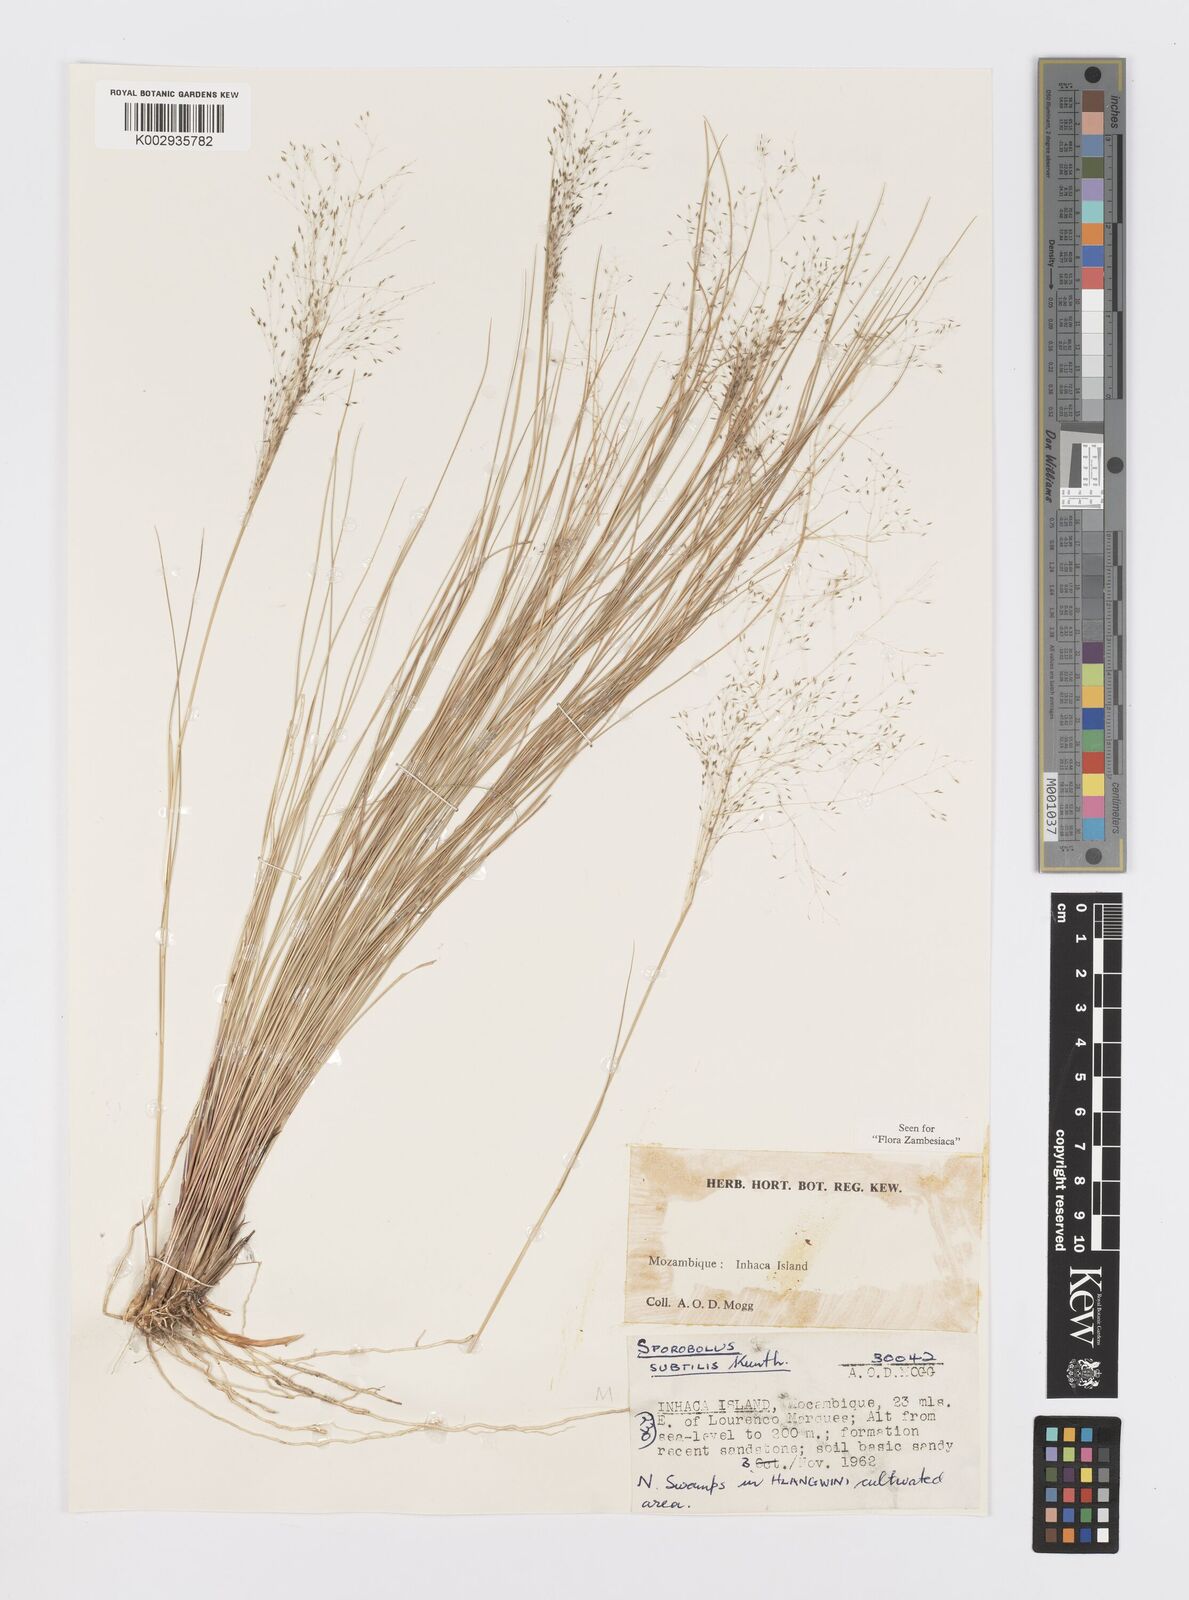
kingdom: Plantae
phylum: Tracheophyta
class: Liliopsida
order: Poales
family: Poaceae
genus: Sporobolus
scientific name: Sporobolus subtilis
